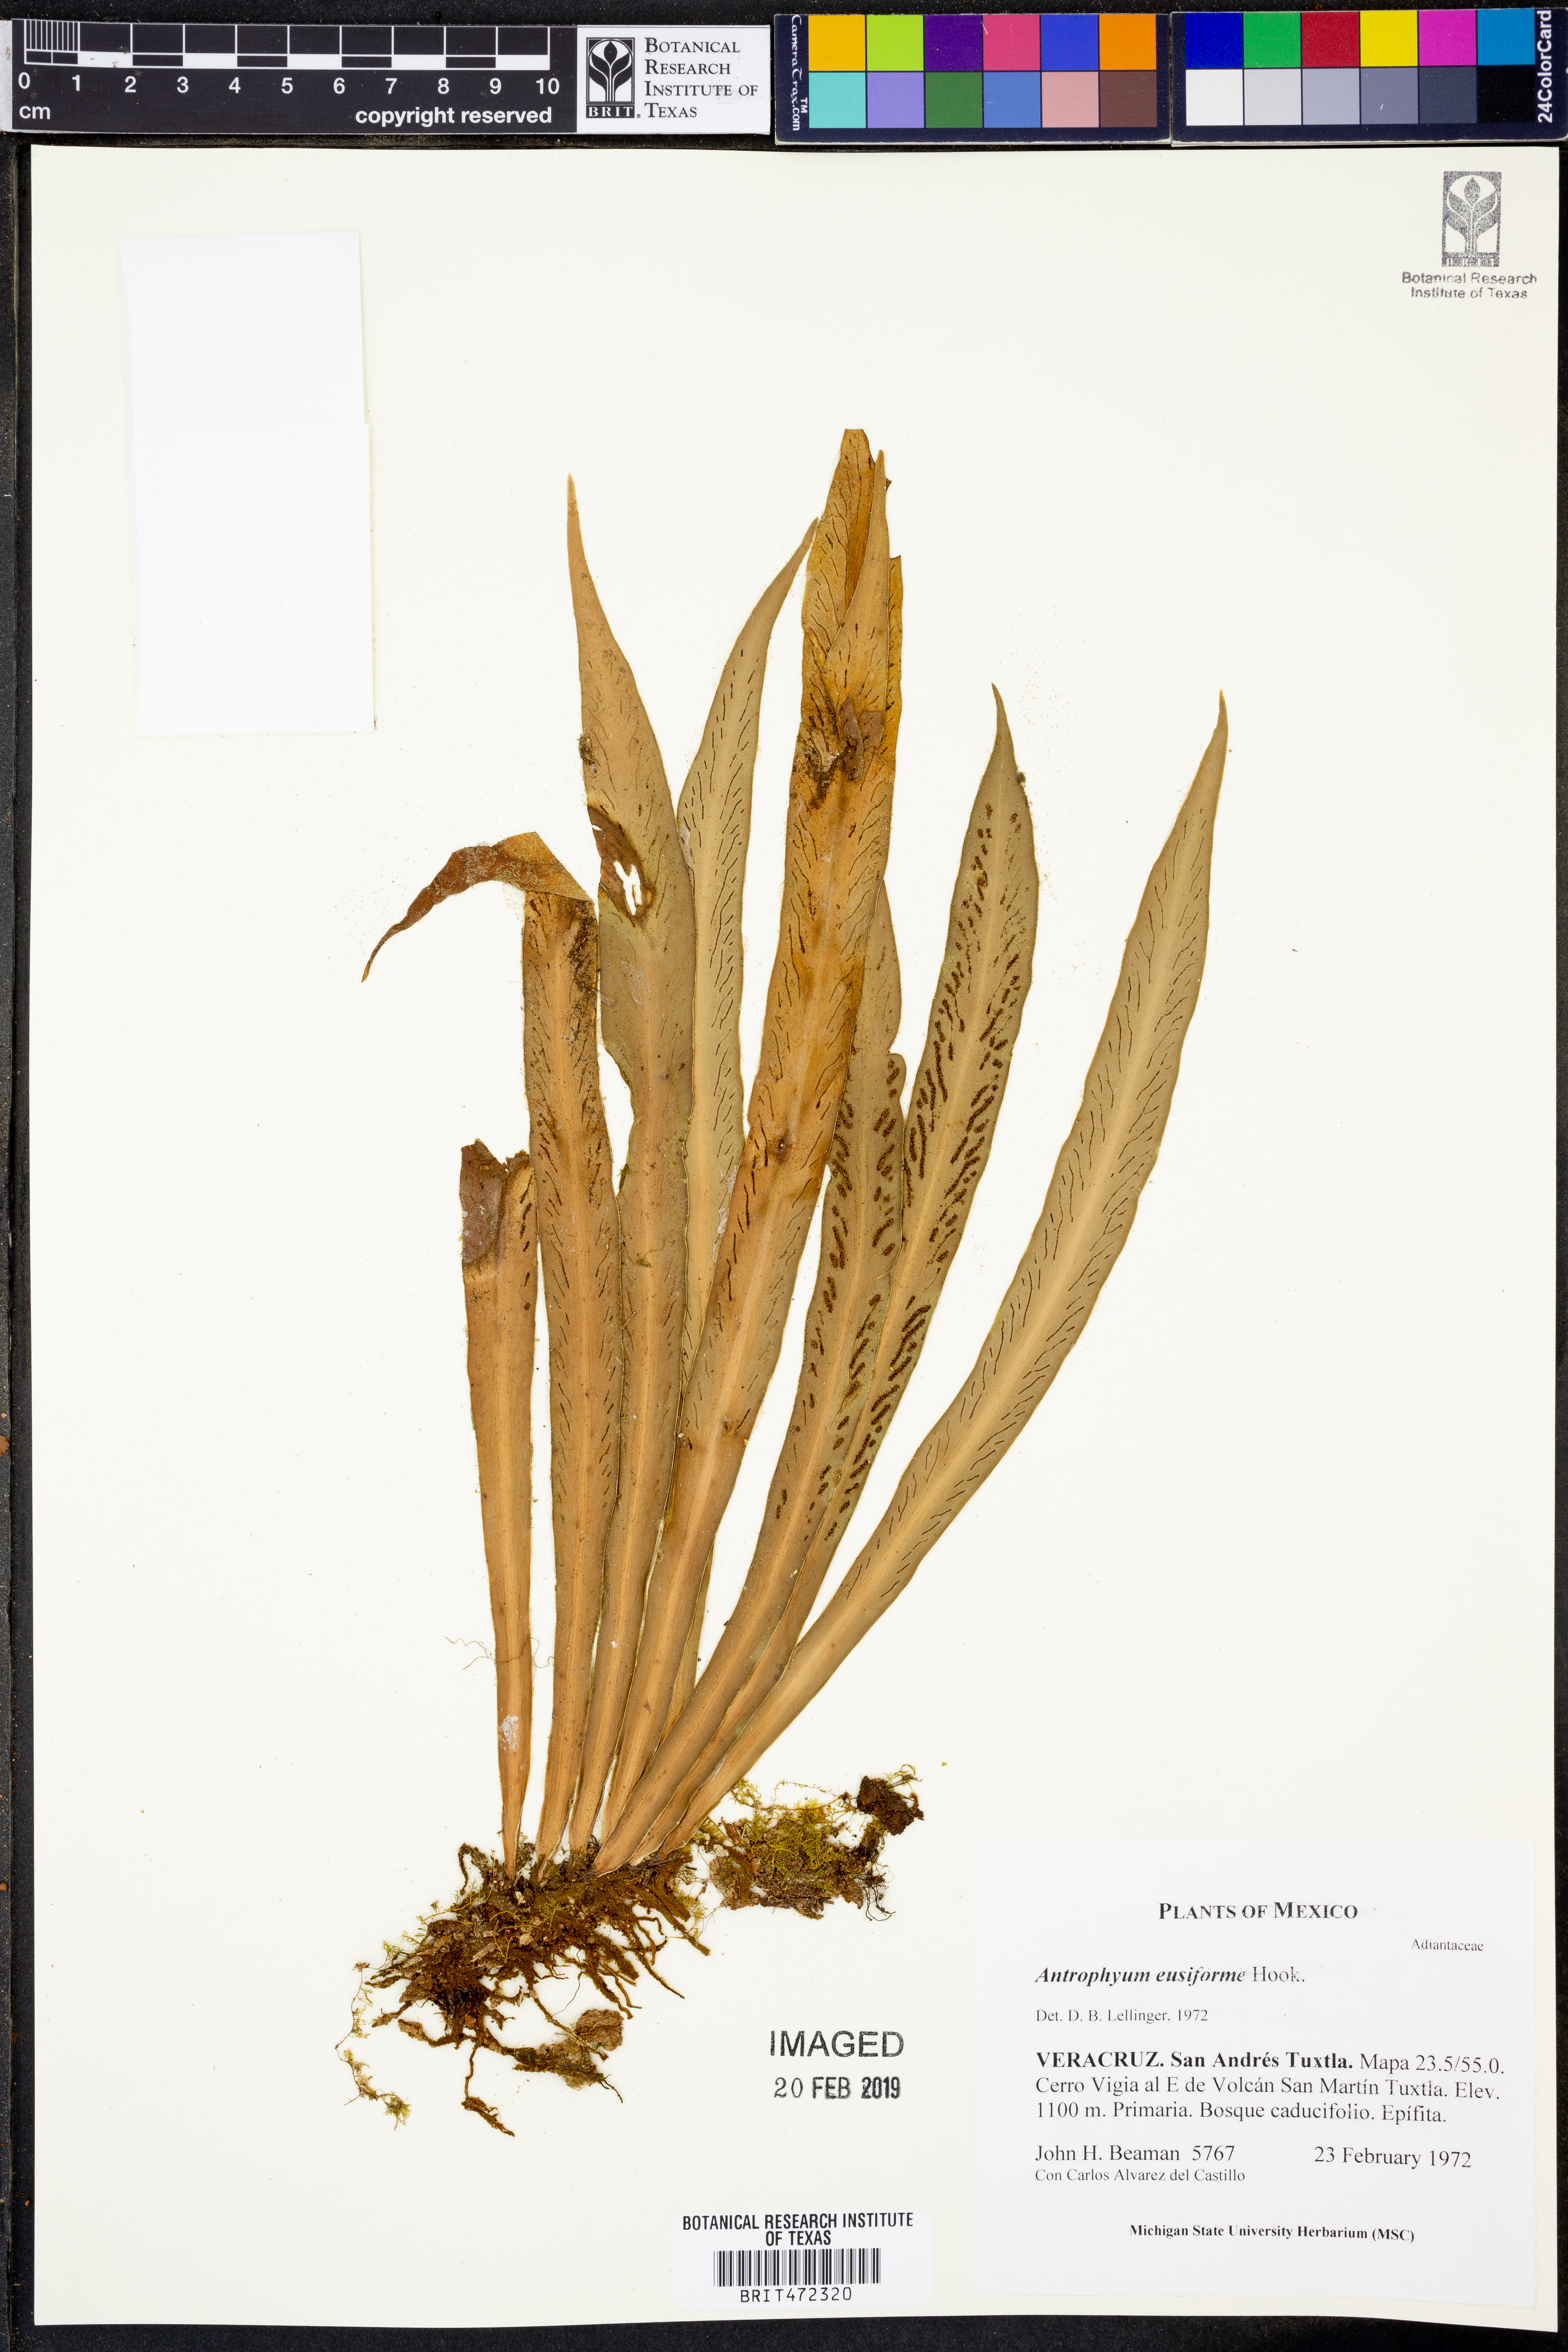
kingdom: Plantae
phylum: Tracheophyta
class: Polypodiopsida
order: Polypodiales
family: Pteridaceae
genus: Scoliosorus
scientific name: Scoliosorus ensiformis
